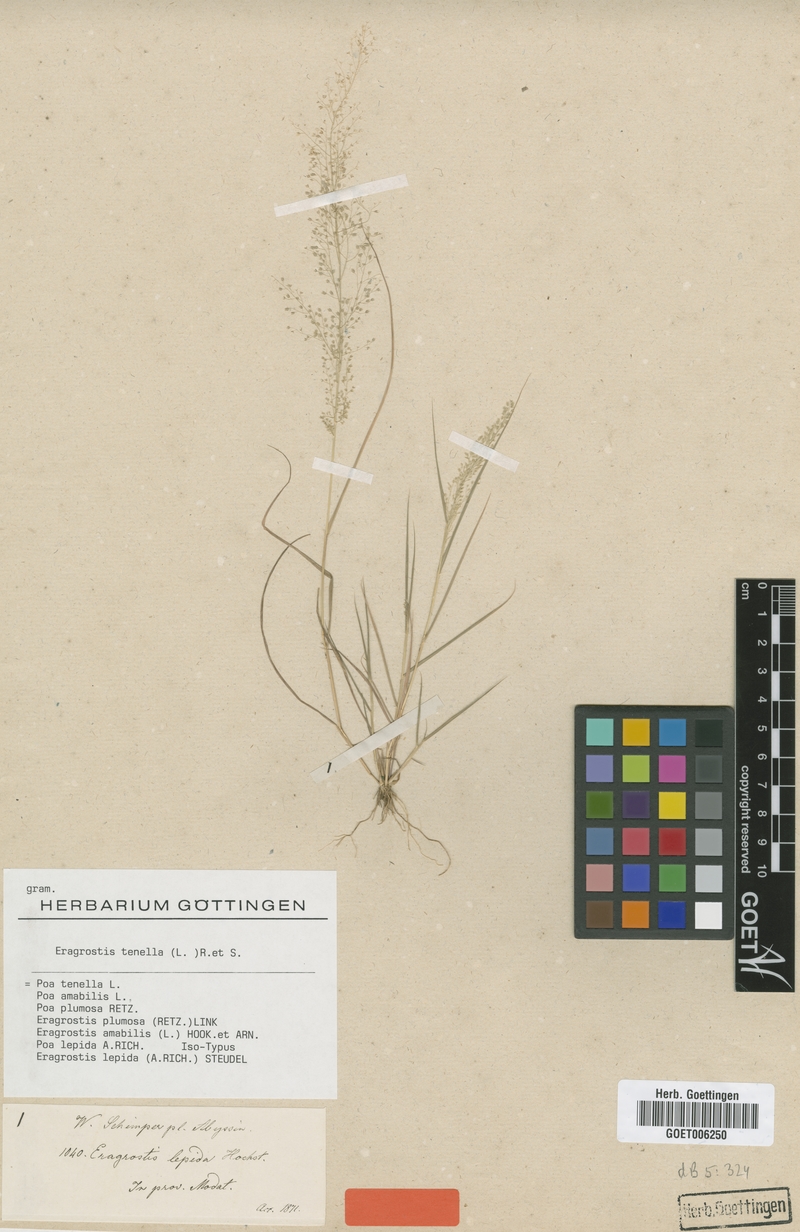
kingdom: Plantae
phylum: Tracheophyta
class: Liliopsida
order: Poales
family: Poaceae
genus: Eragrostis
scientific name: Eragrostis tenella
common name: Japanese lovegrass
